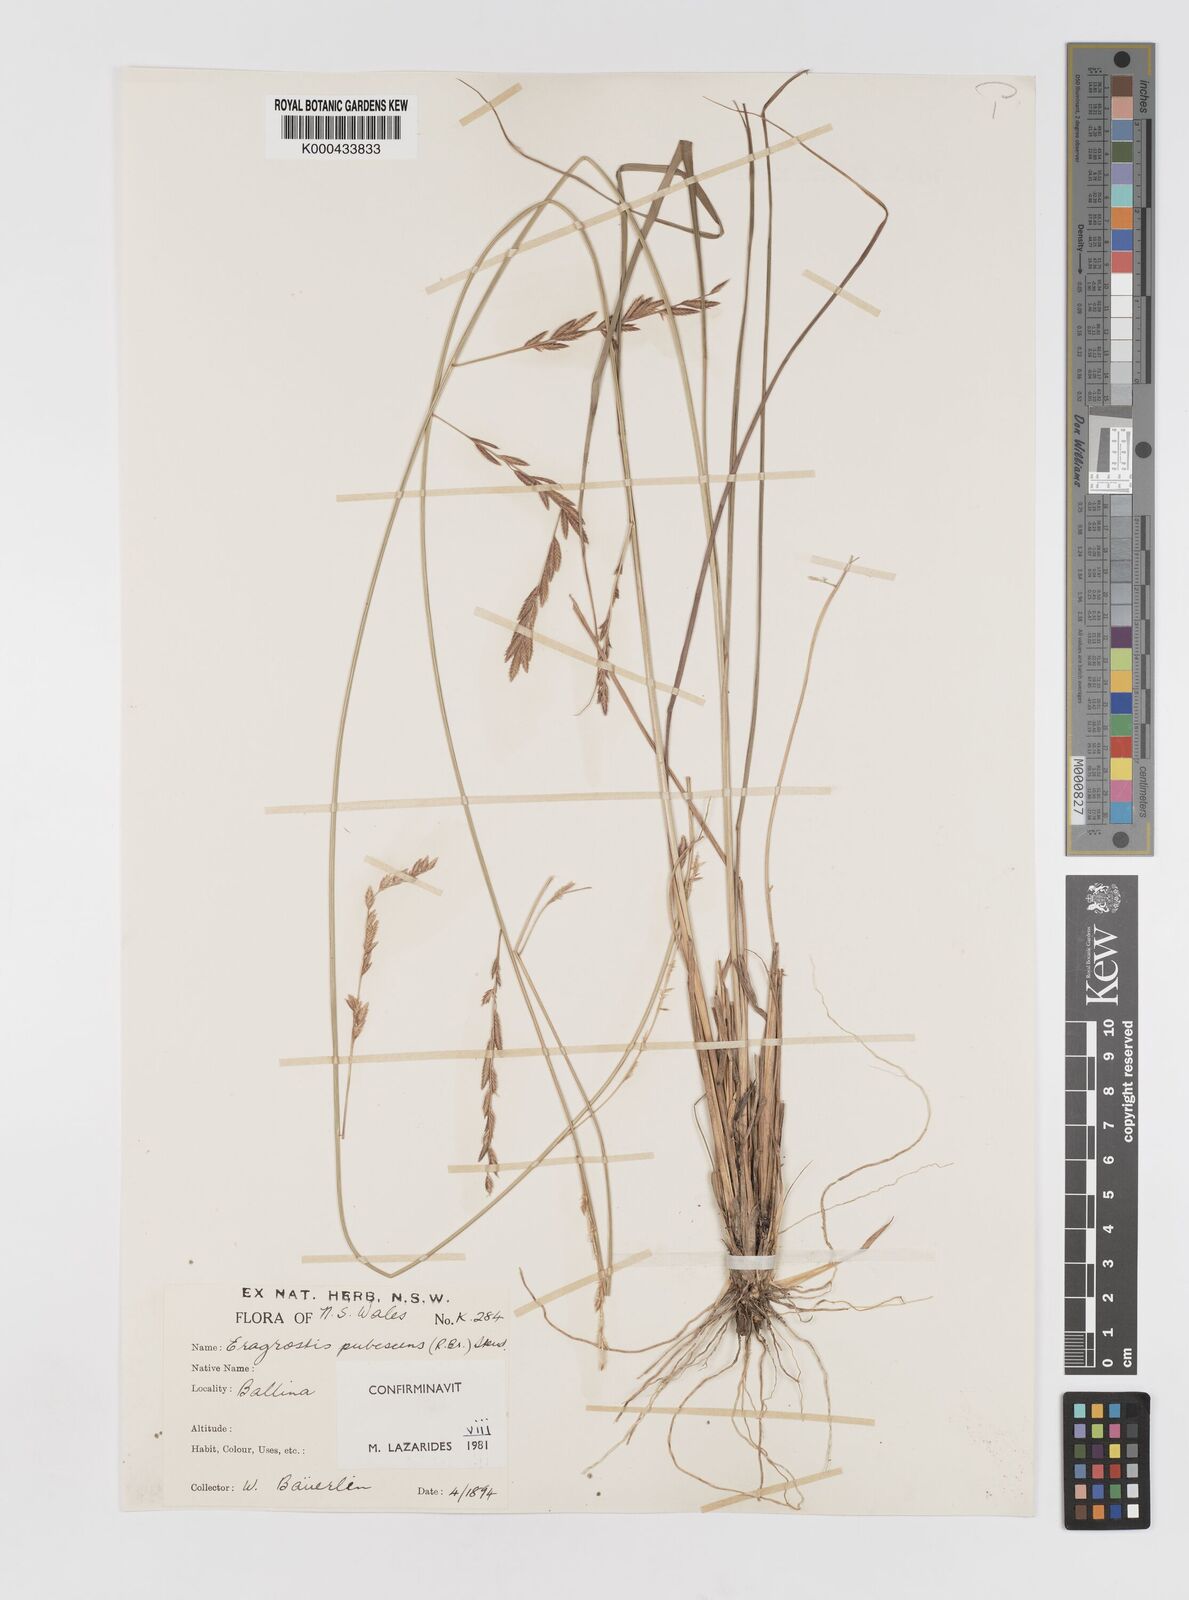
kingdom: Plantae
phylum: Tracheophyta
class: Liliopsida
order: Poales
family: Poaceae
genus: Eragrostis
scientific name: Eragrostis pubescens
